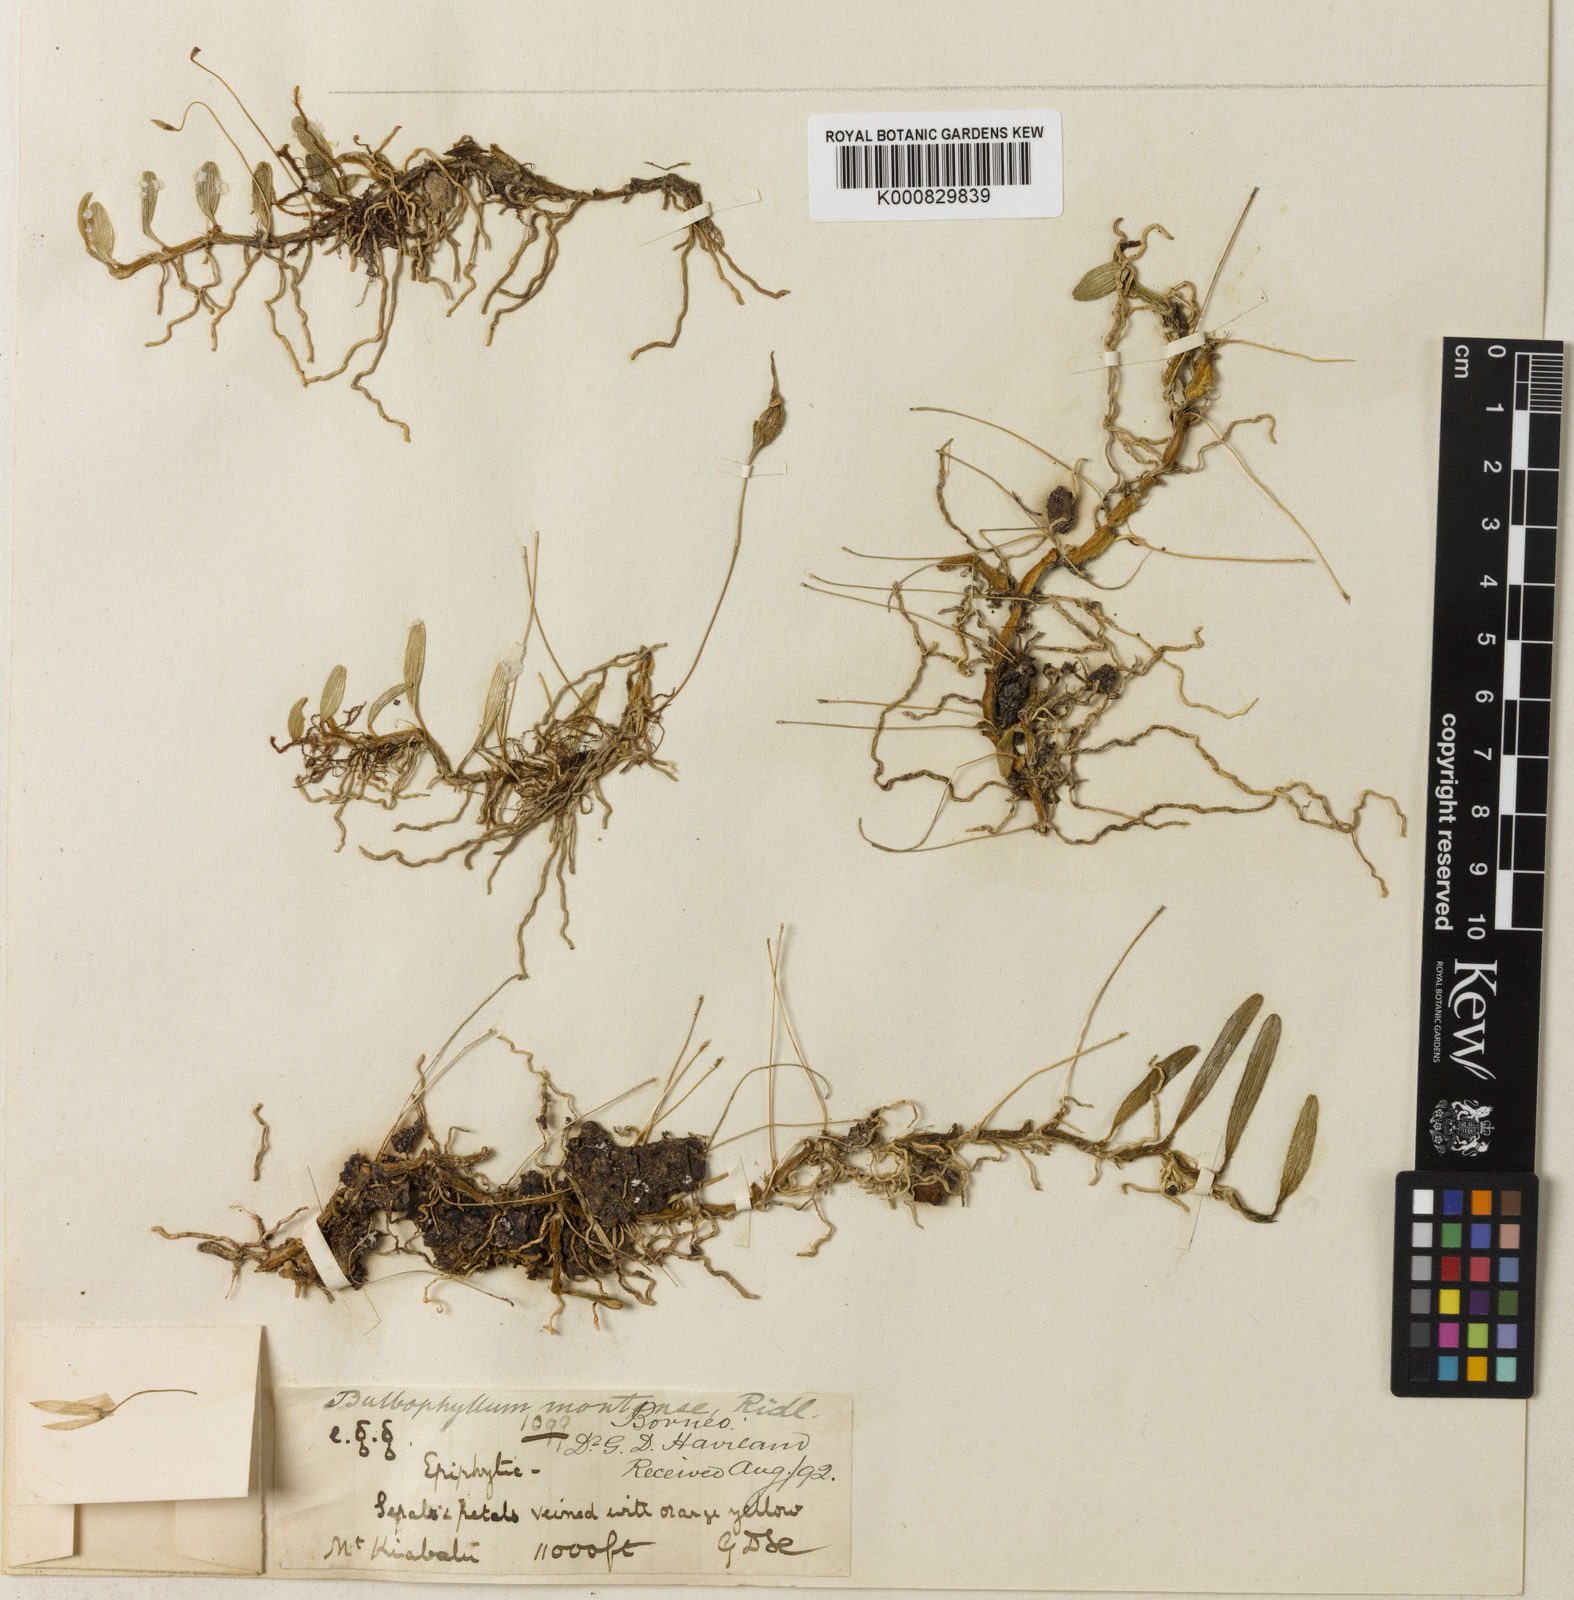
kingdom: Plantae
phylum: Tracheophyta
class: Liliopsida
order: Asparagales
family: Orchidaceae
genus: Bulbophyllum
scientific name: Bulbophyllum montense
